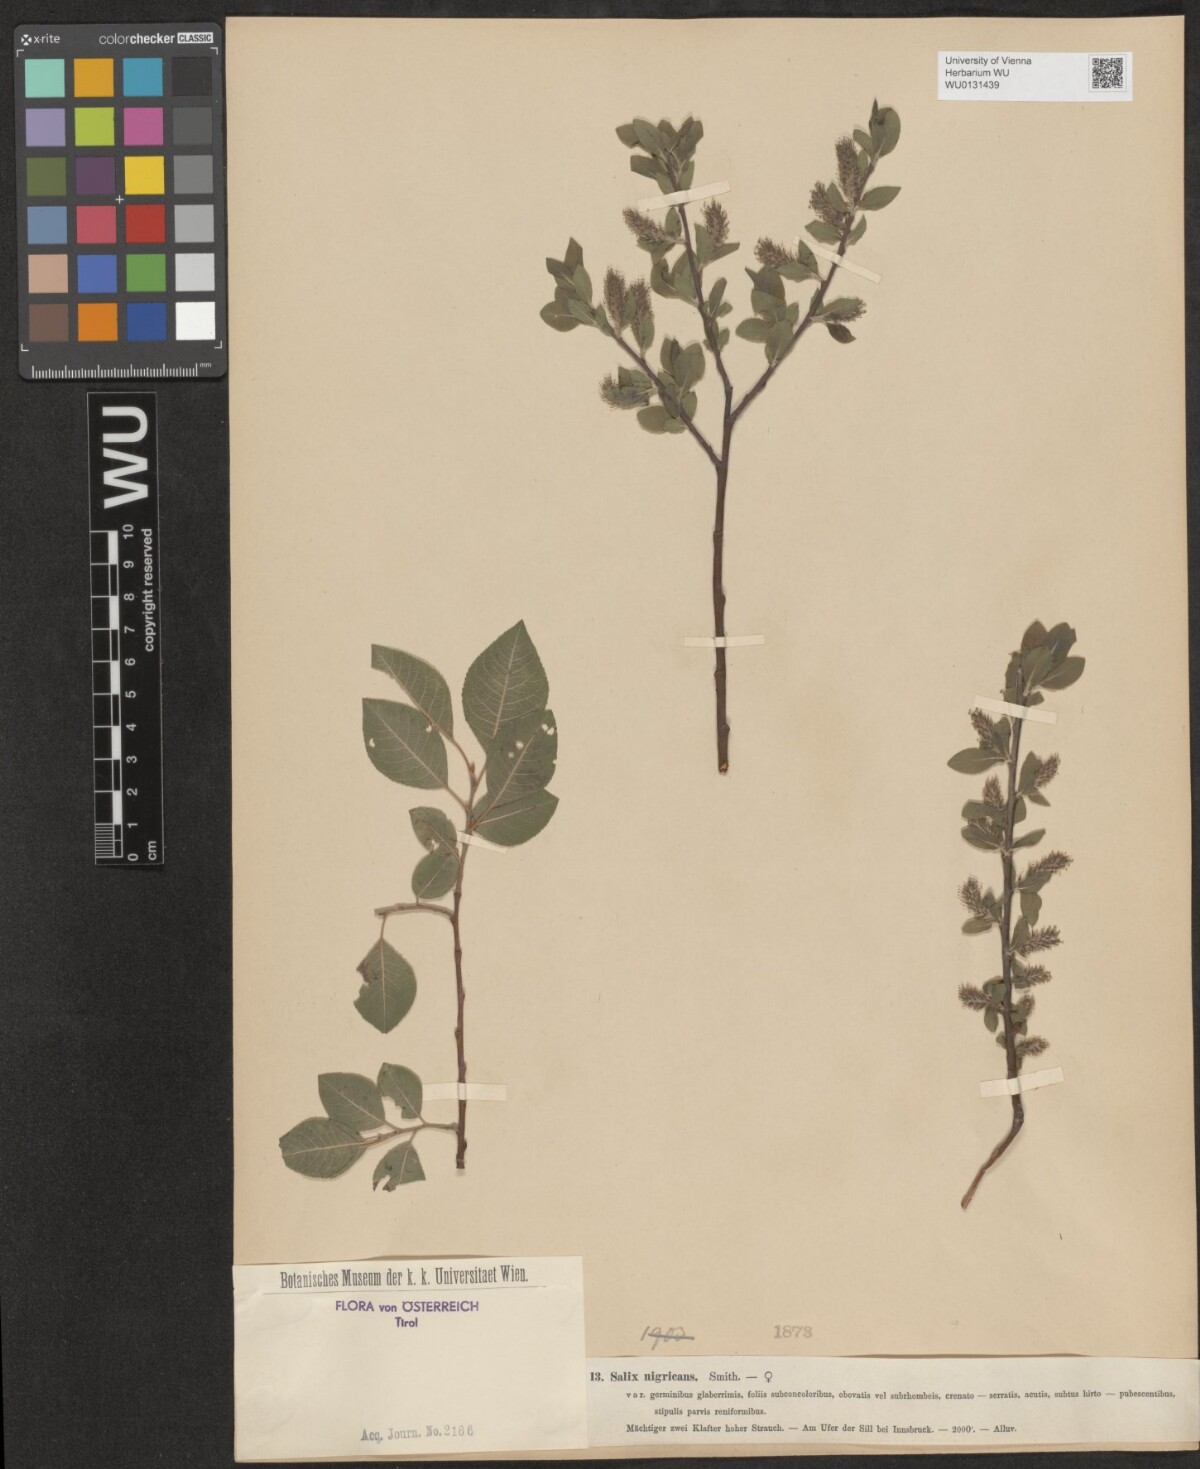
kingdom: Plantae
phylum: Tracheophyta
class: Magnoliopsida
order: Malpighiales
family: Salicaceae
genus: Salix
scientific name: Salix myrsinifolia
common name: Dark-leaved willow
